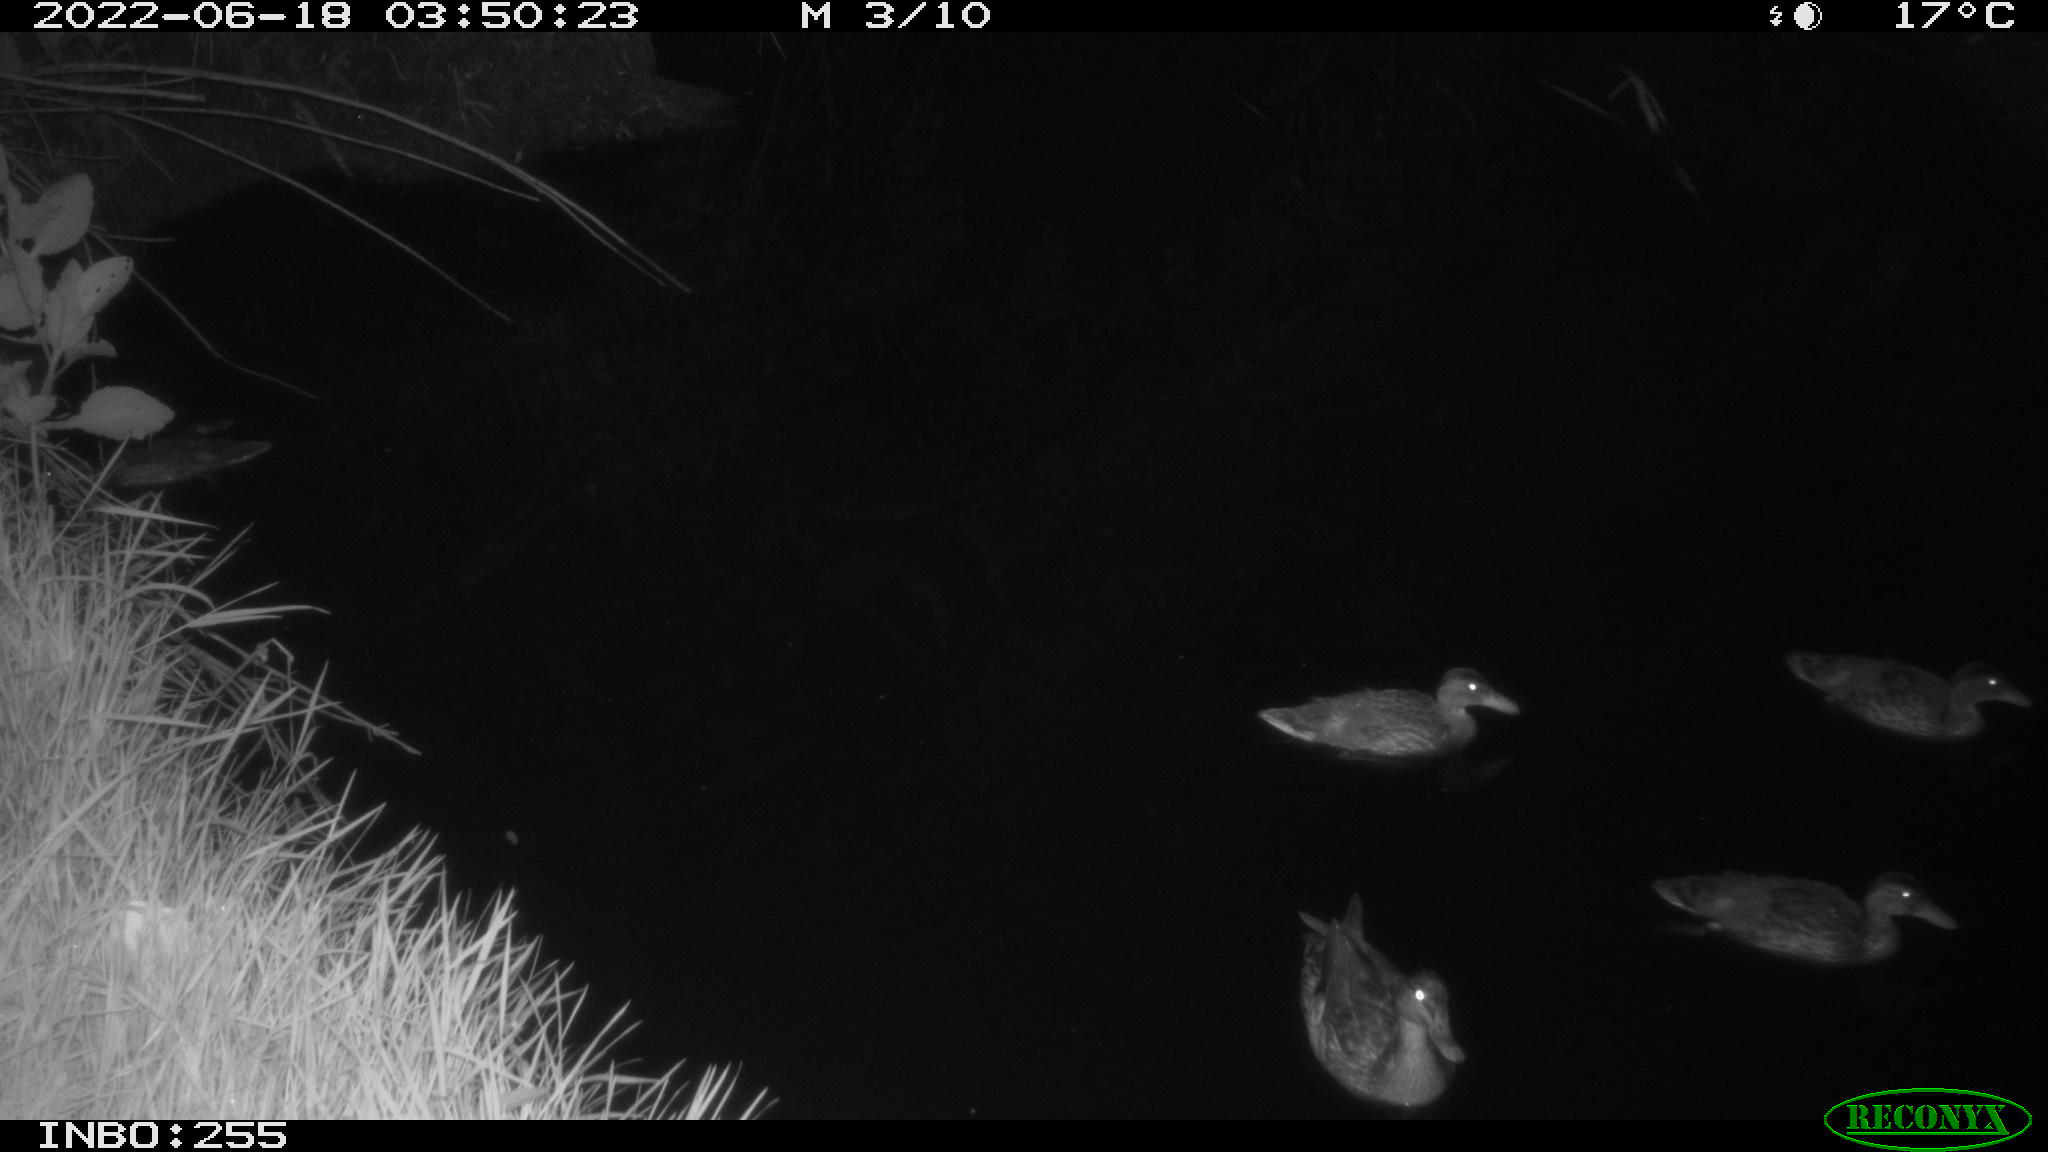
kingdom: Animalia
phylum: Chordata
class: Aves
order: Anseriformes
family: Anatidae
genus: Anas
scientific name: Anas platyrhynchos
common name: Mallard
